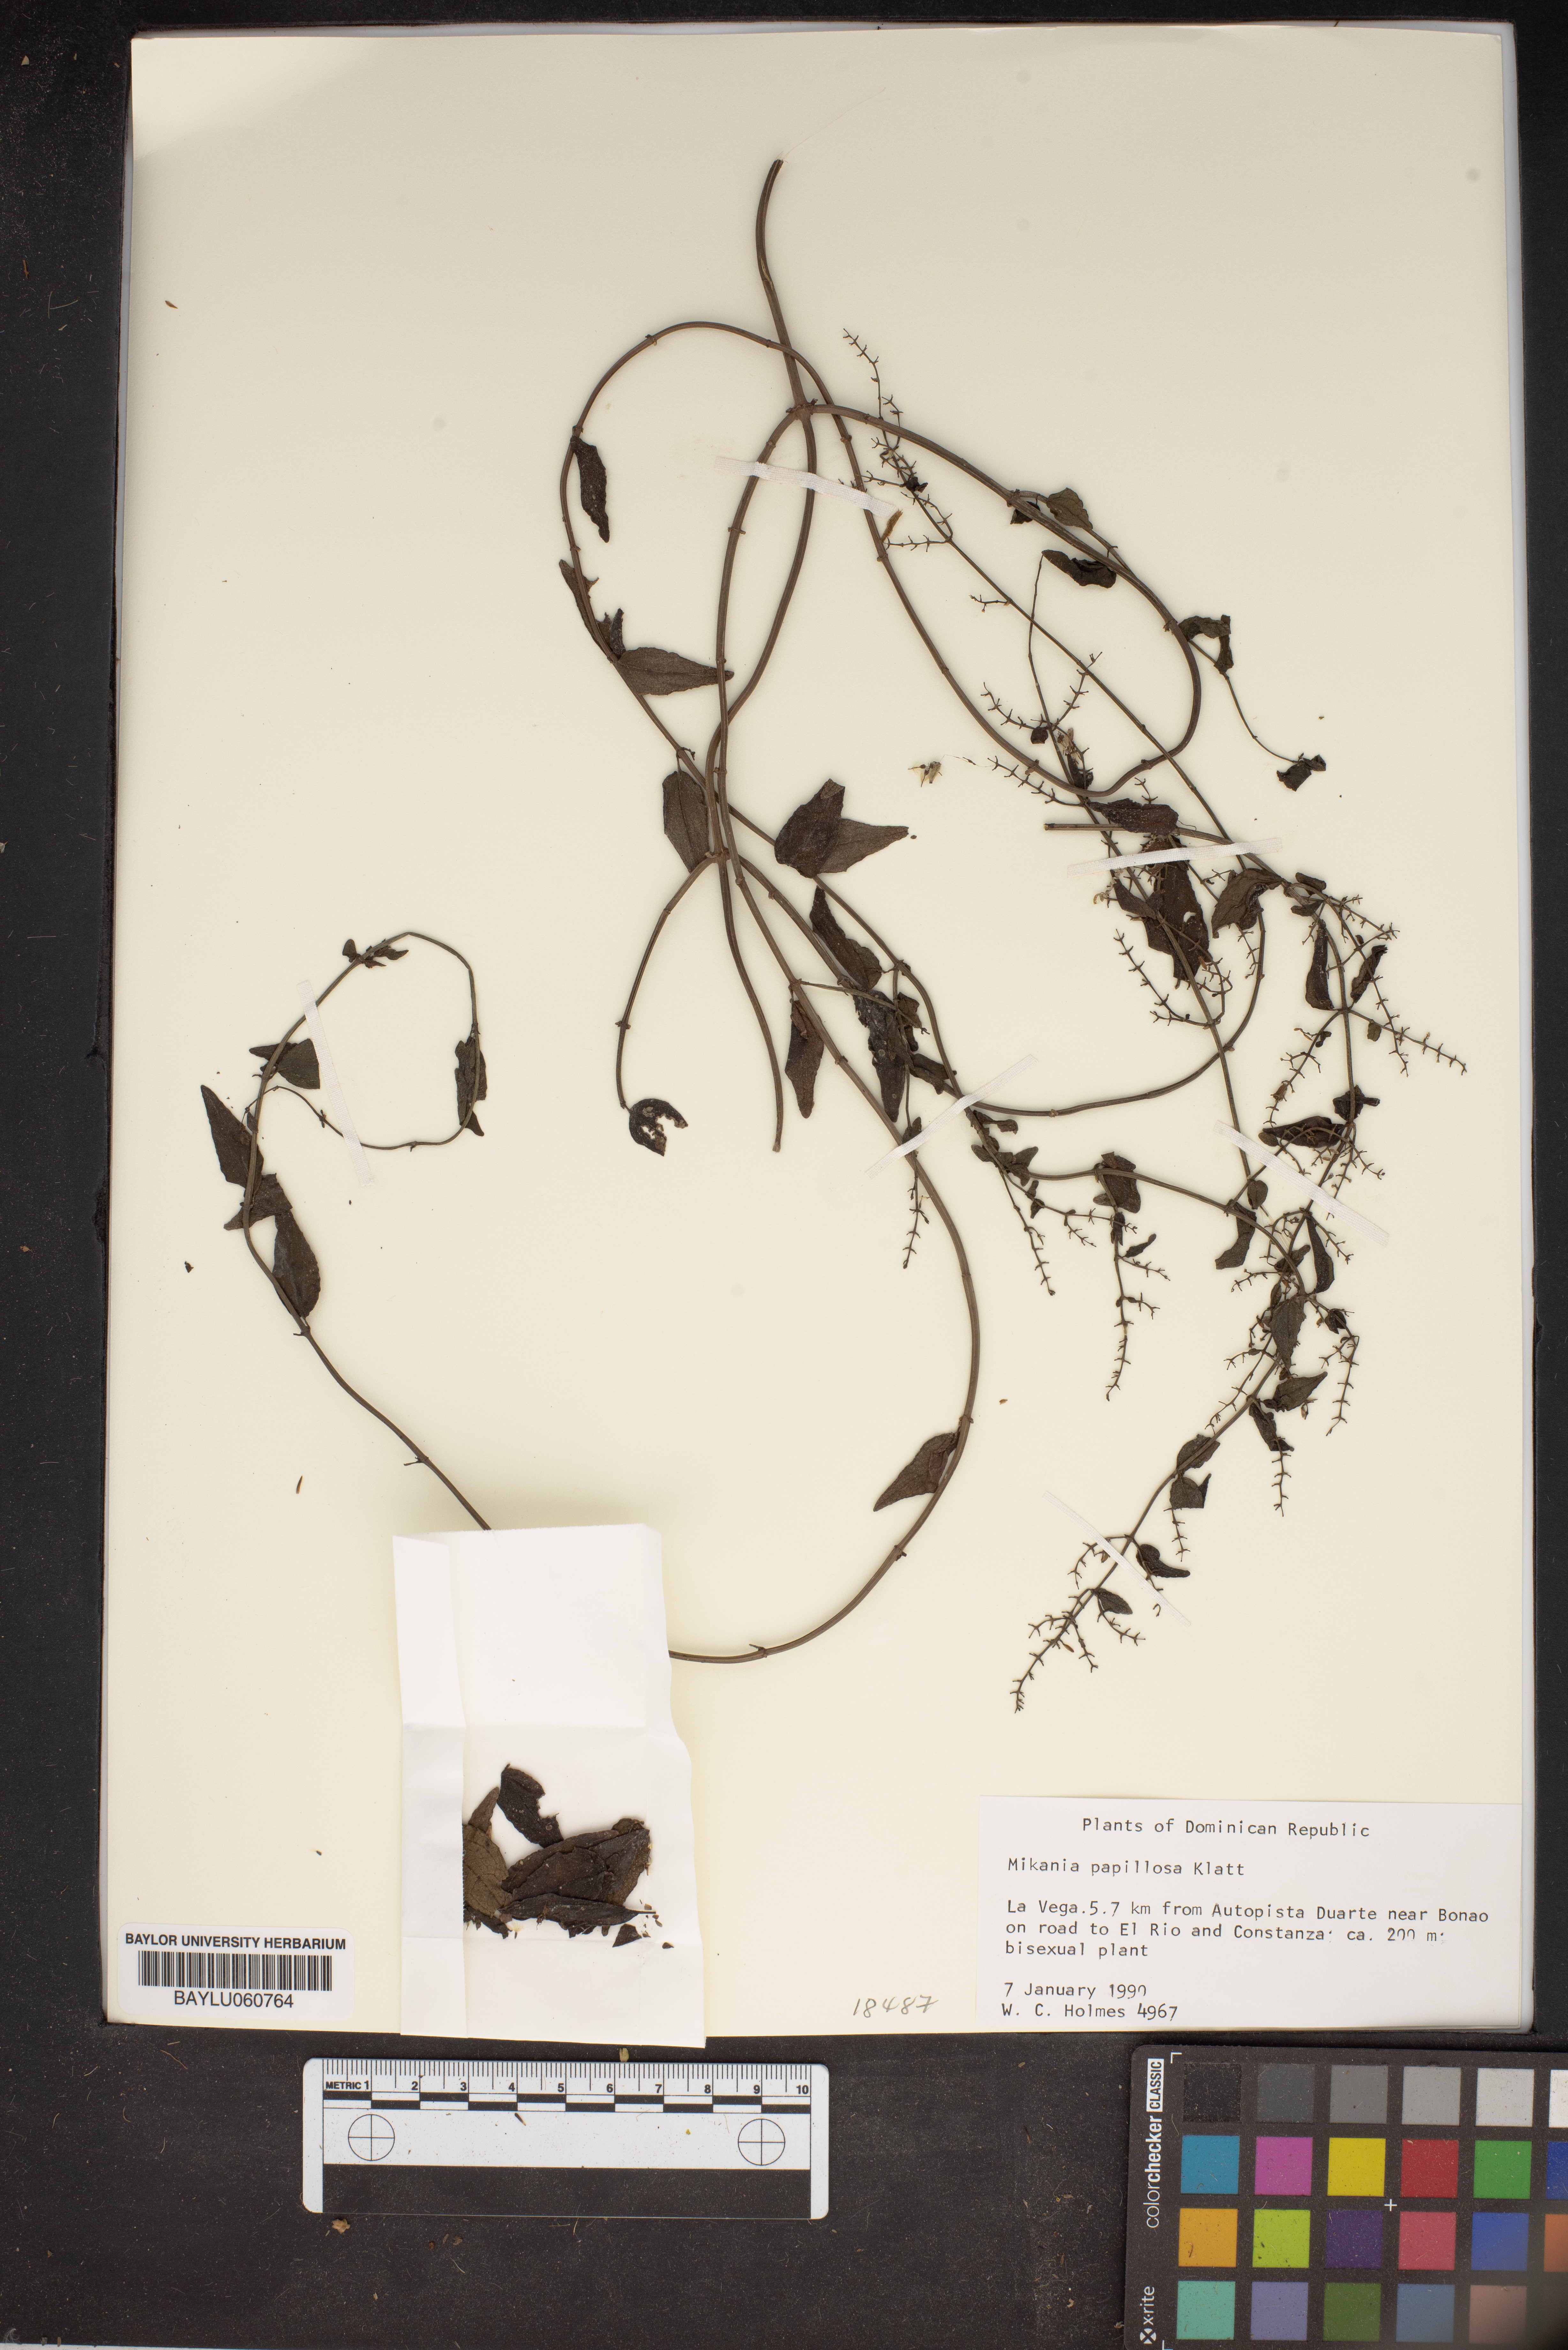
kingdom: Plantae
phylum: Tracheophyta
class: Magnoliopsida
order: Asterales
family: Asteraceae
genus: Mikania
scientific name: Mikania papillosa
